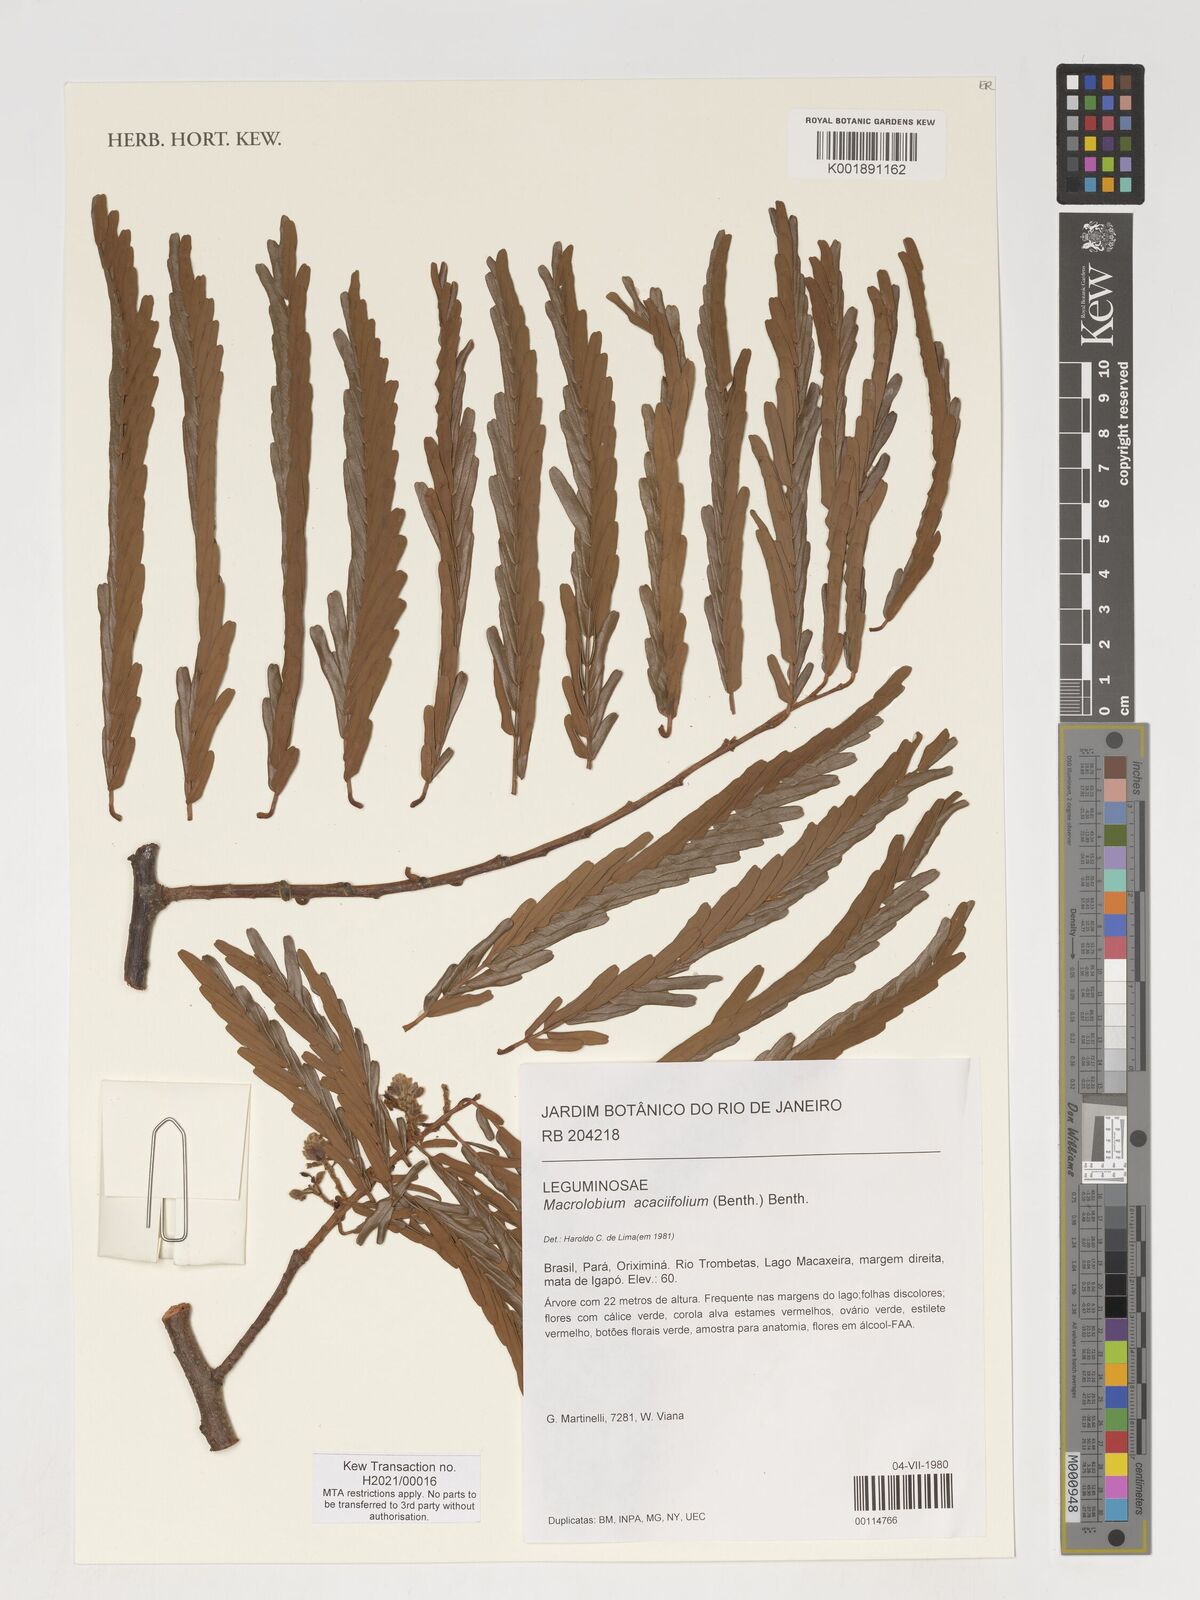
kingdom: Plantae
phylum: Tracheophyta
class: Magnoliopsida
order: Fabales
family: Fabaceae
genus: Macrolobium
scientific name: Macrolobium acaciifolium
